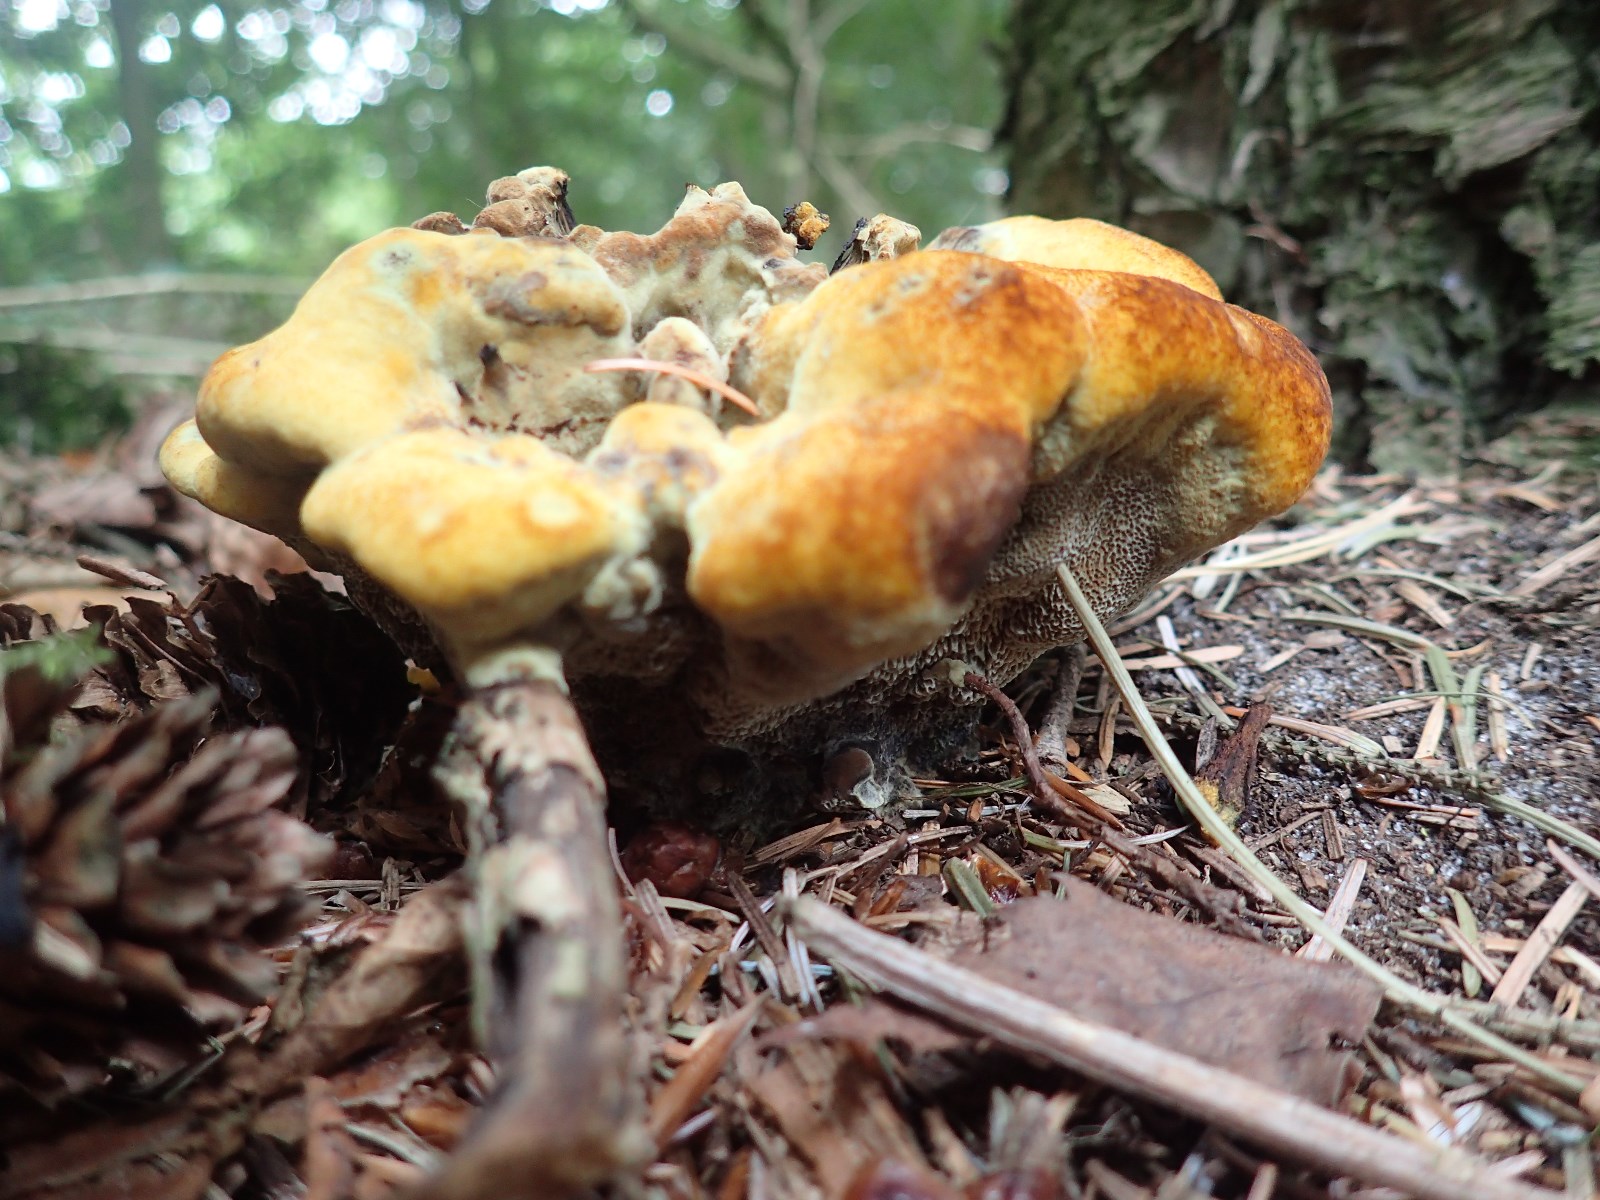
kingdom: Fungi
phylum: Basidiomycota
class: Agaricomycetes
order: Polyporales
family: Laetiporaceae
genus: Phaeolus
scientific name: Phaeolus schweinitzii
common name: brunporesvamp
